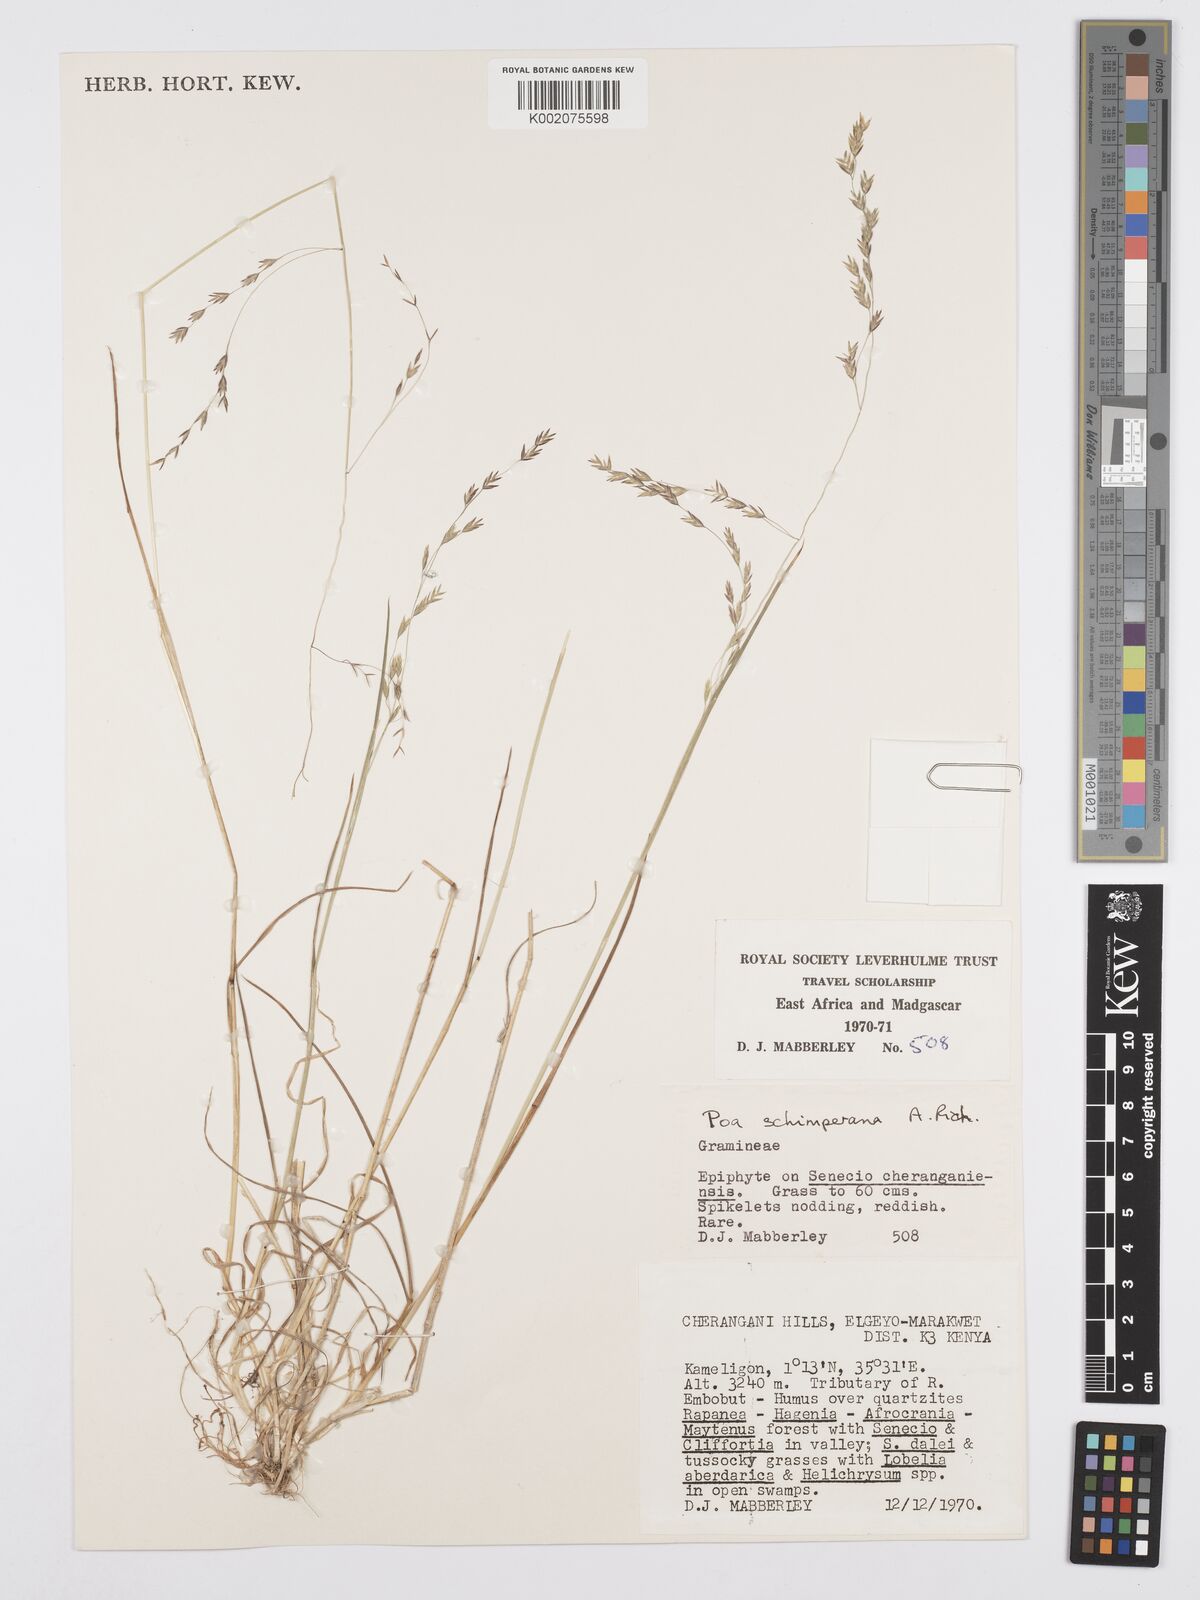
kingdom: Plantae
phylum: Tracheophyta
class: Liliopsida
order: Poales
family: Poaceae
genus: Poa
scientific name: Poa schimperiana
